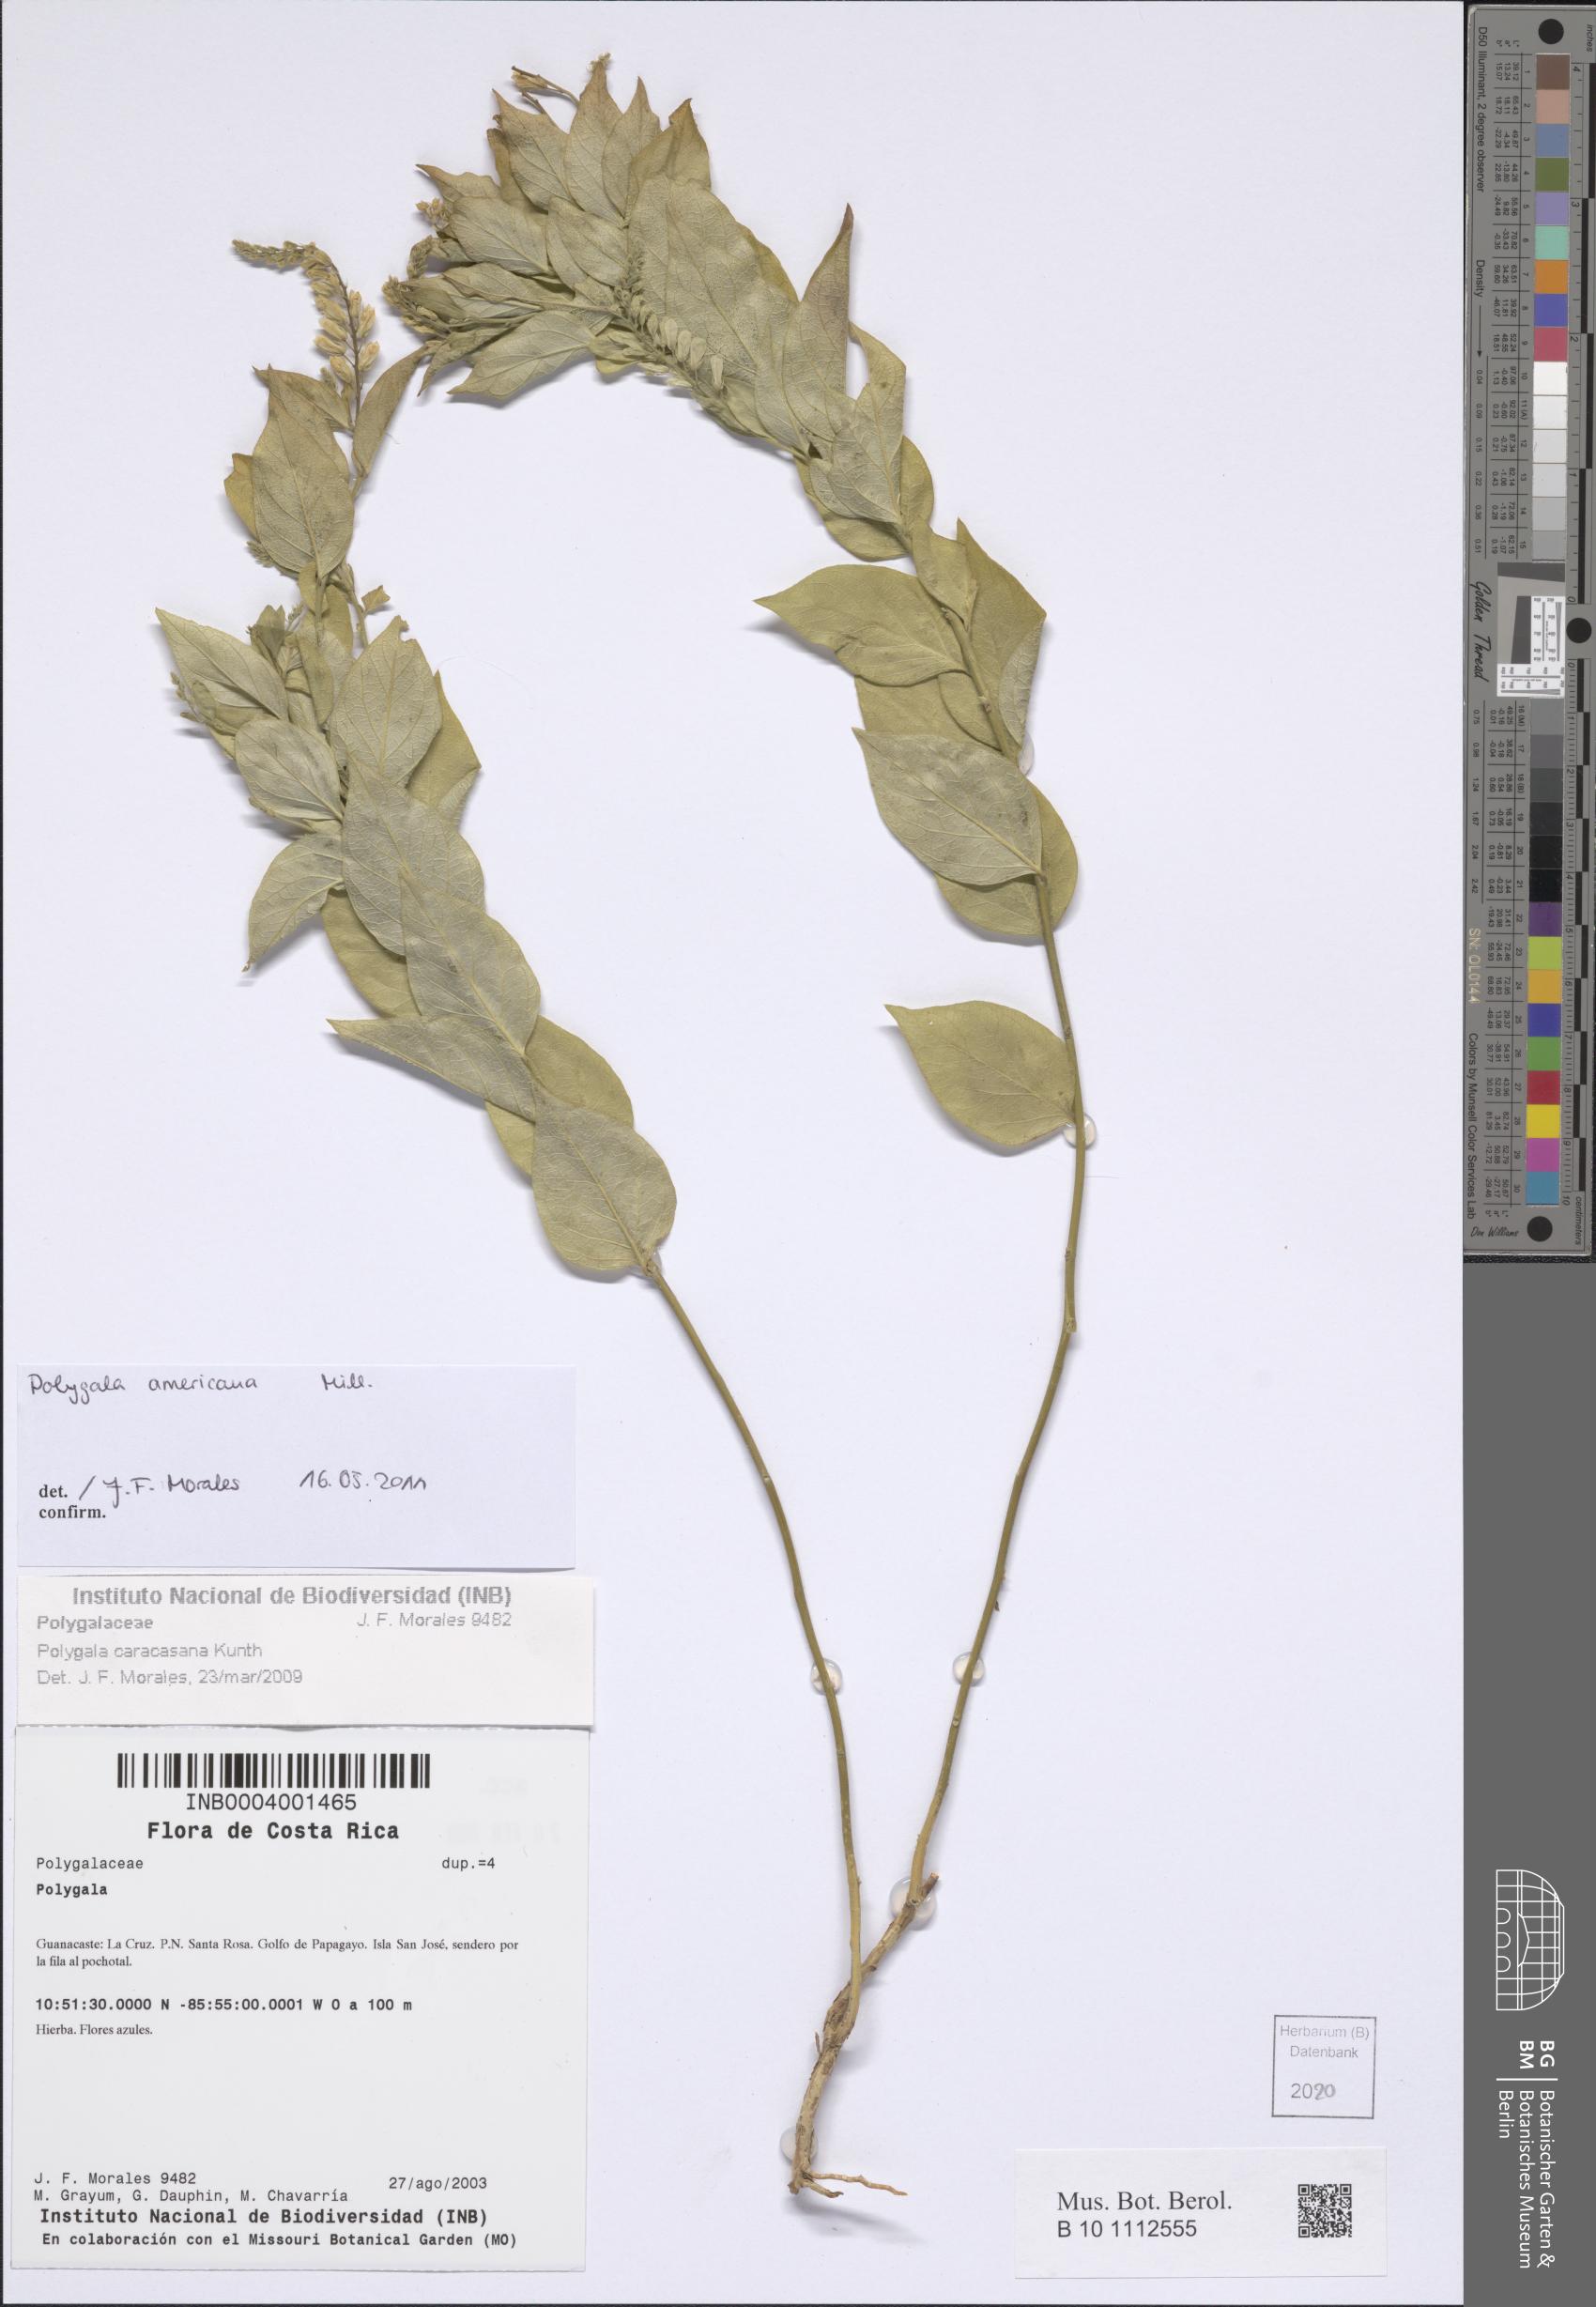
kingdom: Plantae
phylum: Tracheophyta
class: Magnoliopsida
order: Fabales
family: Polygalaceae
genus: Hebecarpa
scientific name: Hebecarpa americana
